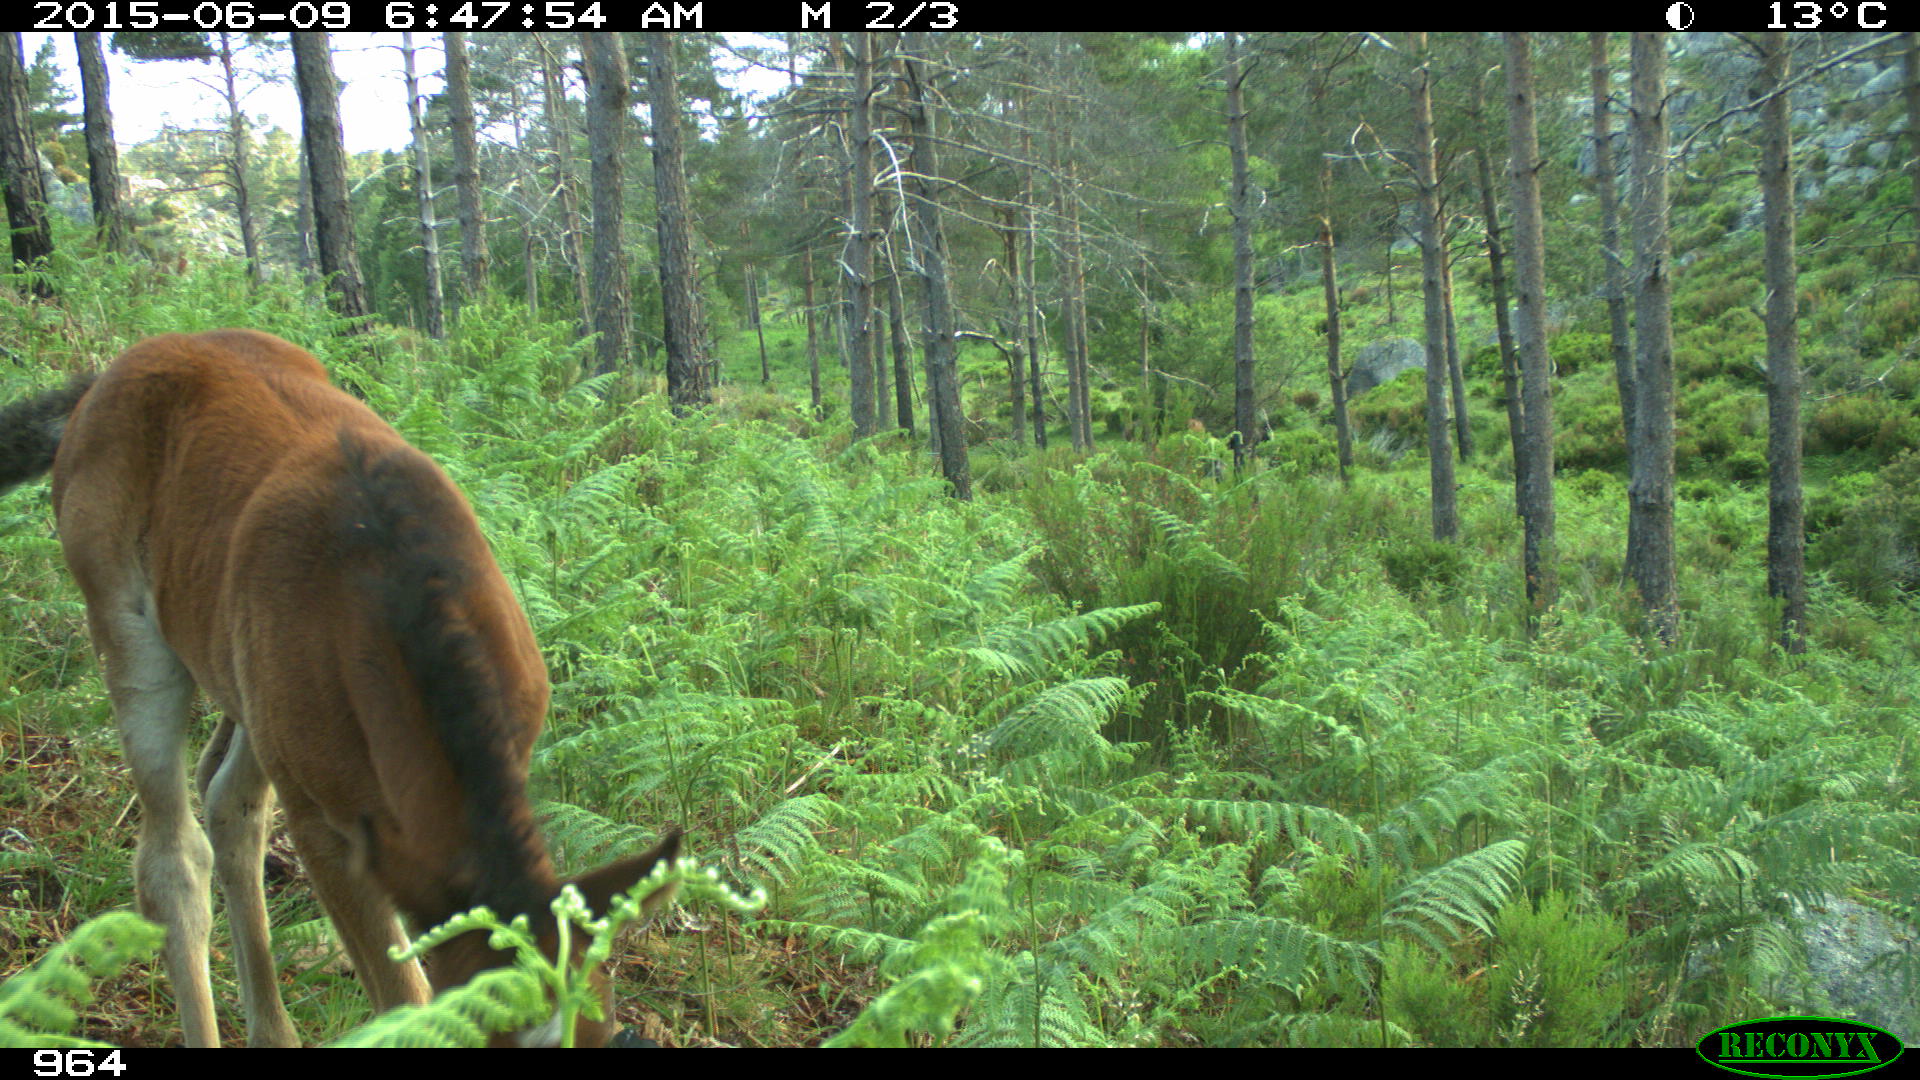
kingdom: Animalia
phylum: Chordata
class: Mammalia
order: Perissodactyla
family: Equidae
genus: Equus
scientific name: Equus caballus
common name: Horse
